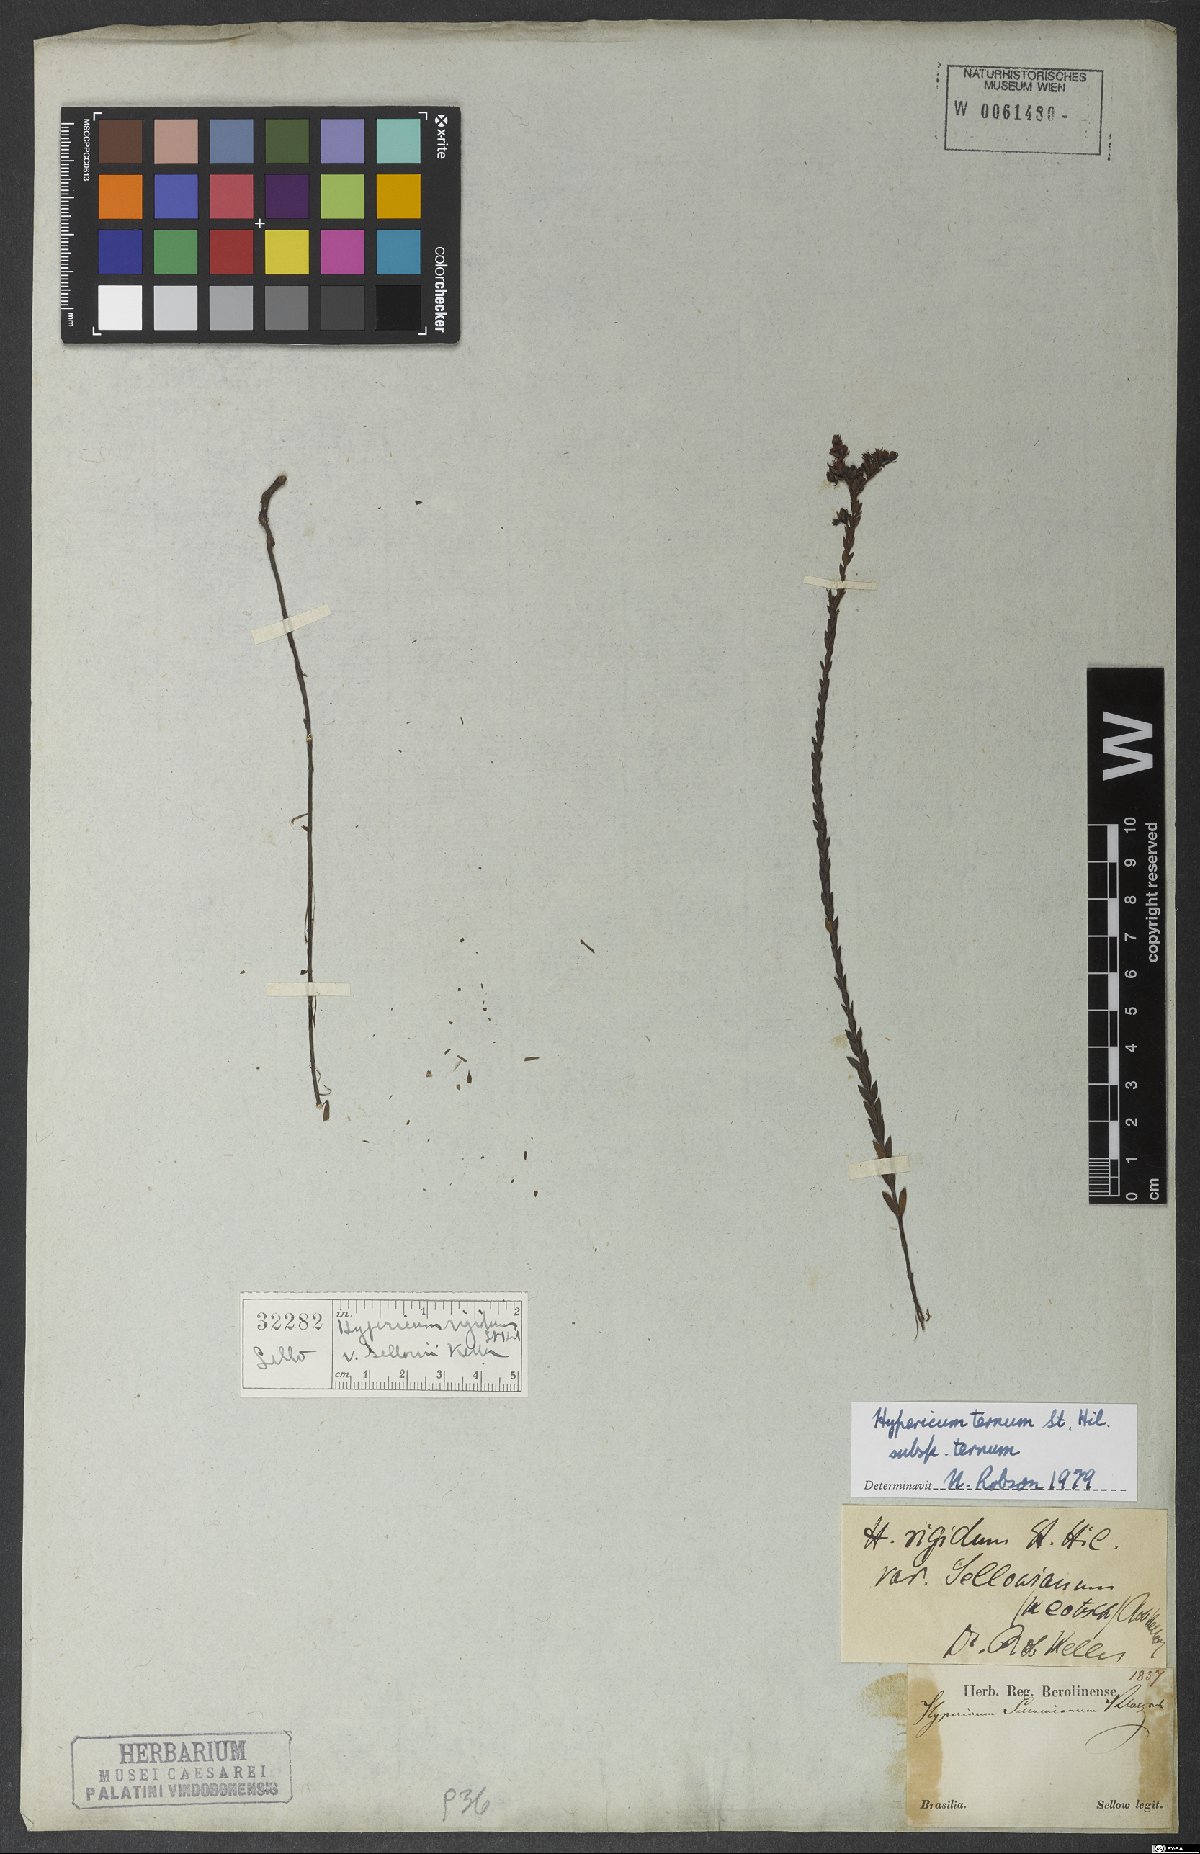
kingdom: Plantae
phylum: Tracheophyta
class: Magnoliopsida
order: Malpighiales
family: Hypericaceae
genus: Hypericum
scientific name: Hypericum ternum
